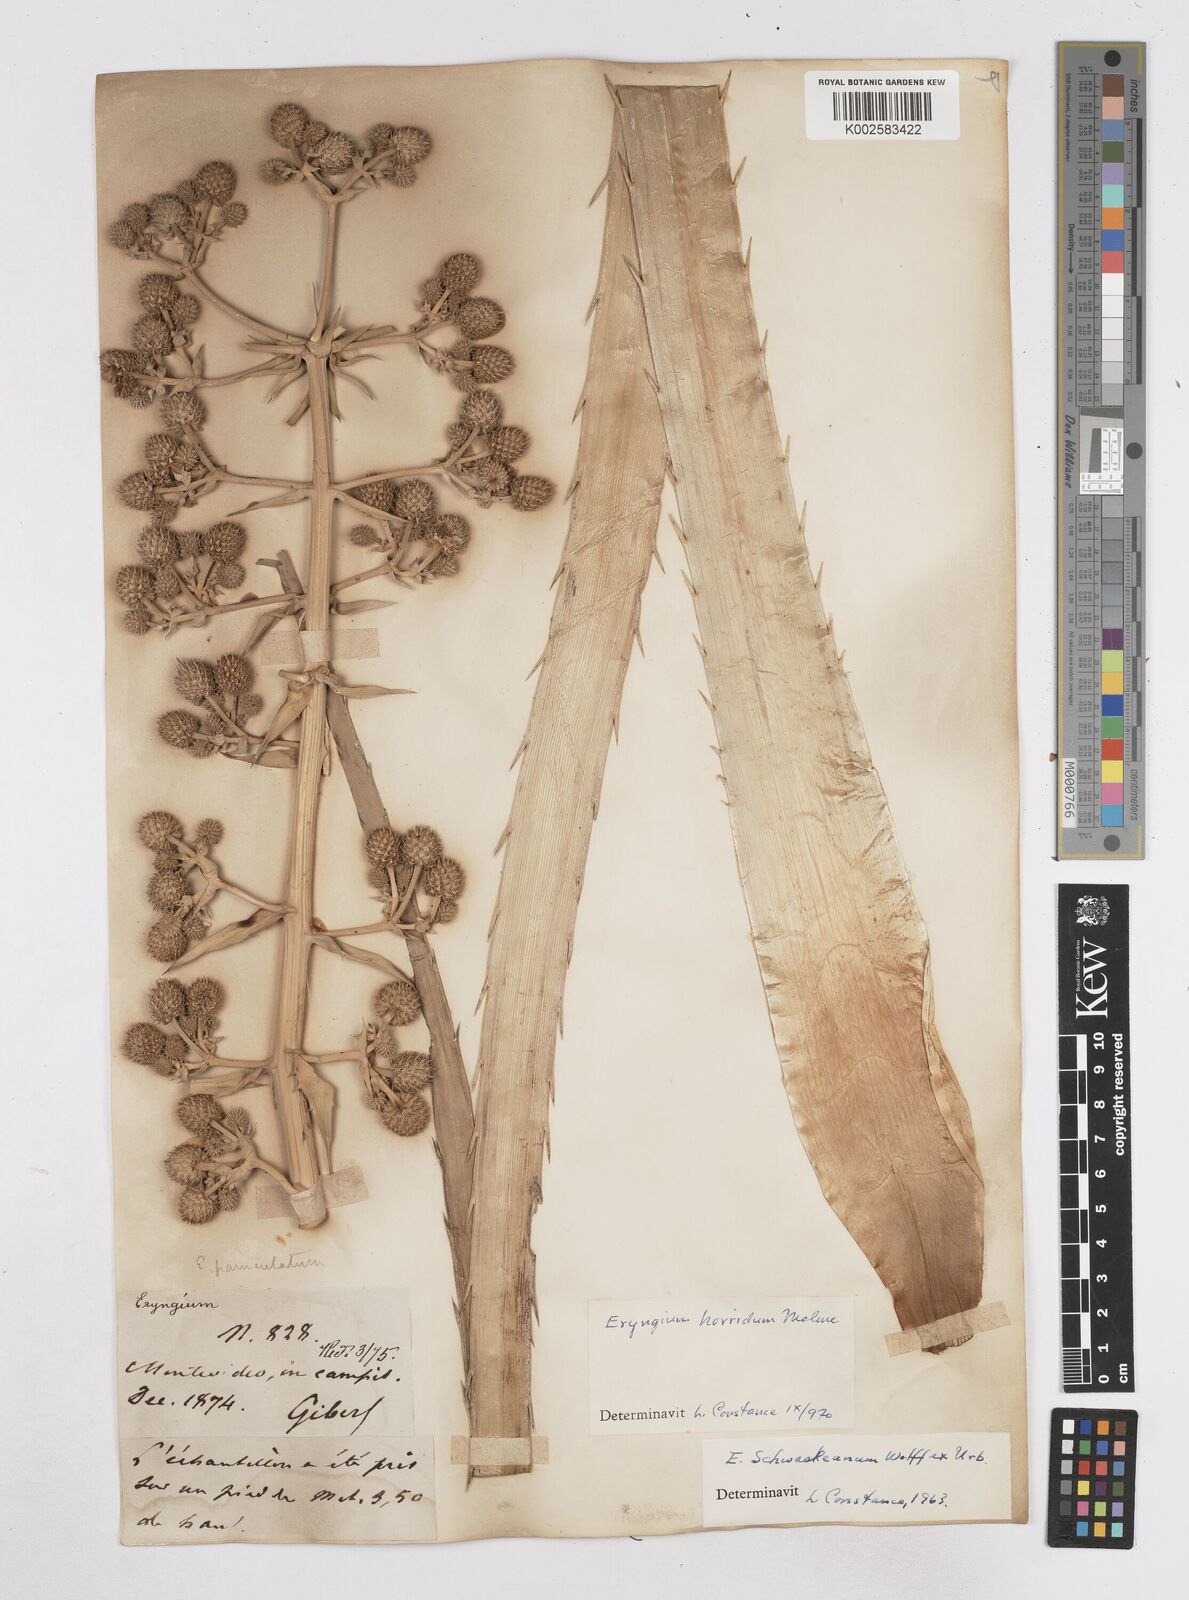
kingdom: Plantae
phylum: Tracheophyta
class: Magnoliopsida
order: Apiales
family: Apiaceae
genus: Eryngium
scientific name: Eryngium humboldtii
